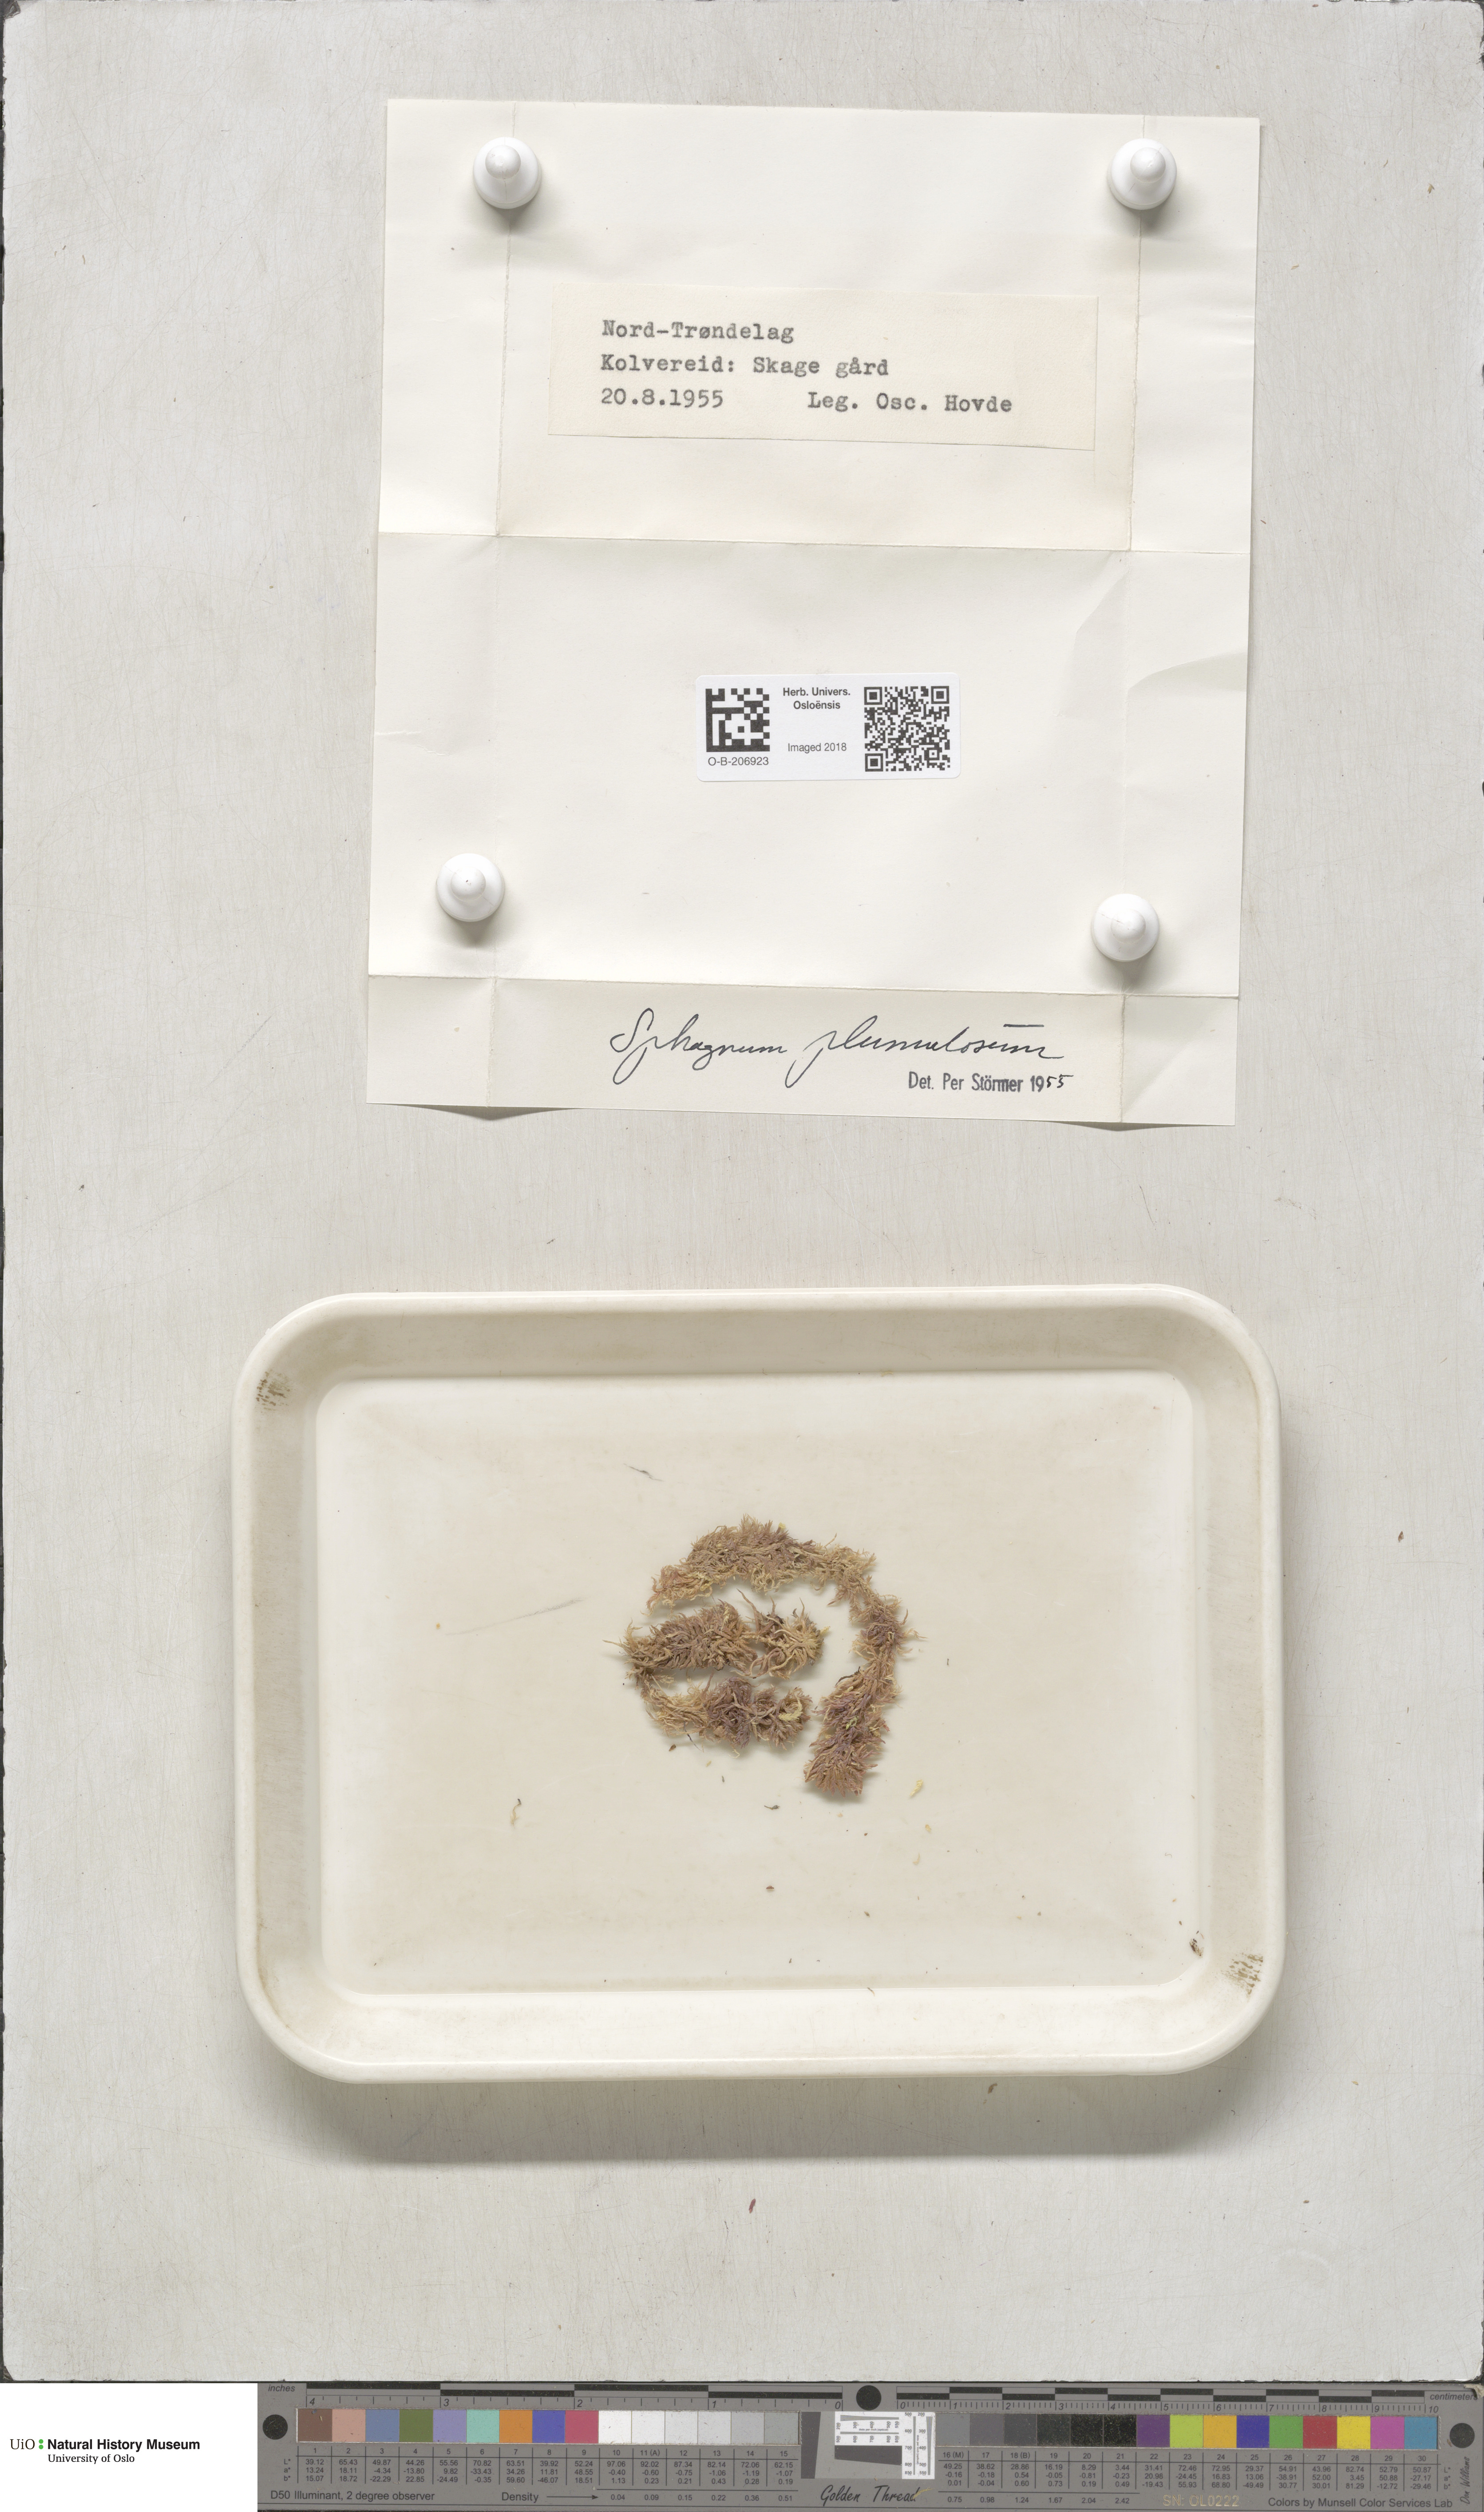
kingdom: Plantae
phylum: Bryophyta
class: Sphagnopsida
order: Sphagnales
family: Sphagnaceae
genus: Sphagnum
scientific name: Sphagnum subnitens
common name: Lustrous bog-moss
